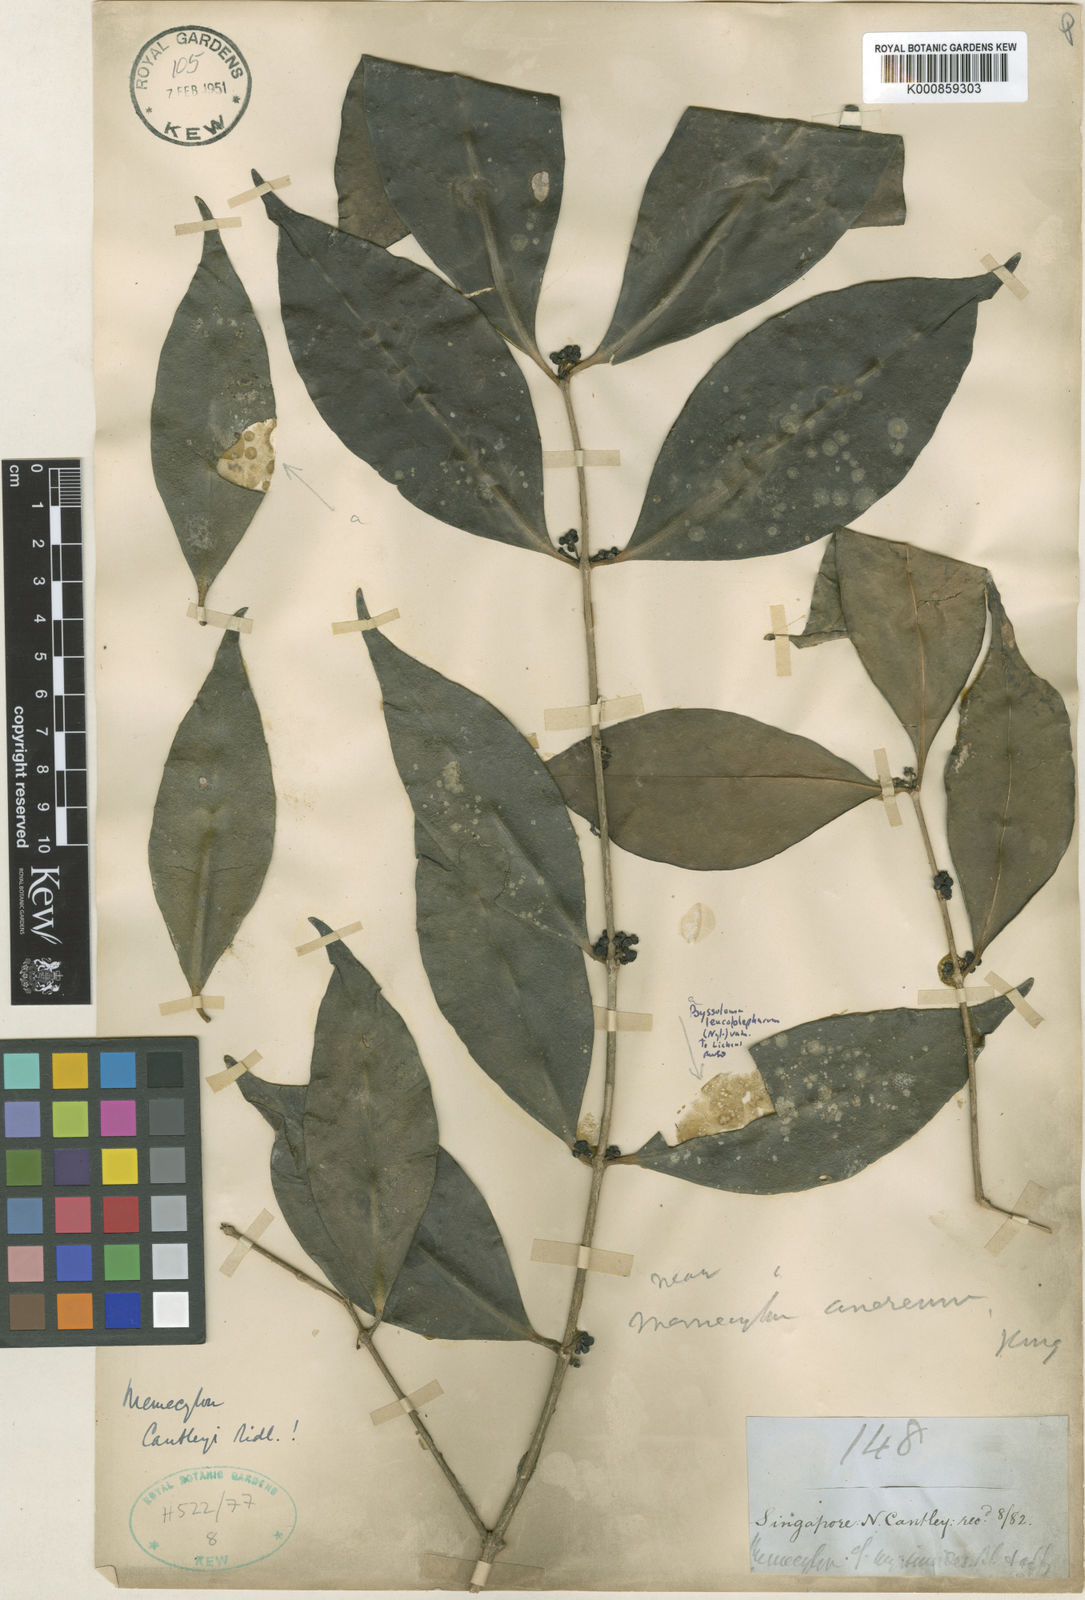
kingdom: Plantae
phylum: Tracheophyta
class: Magnoliopsida
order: Myrtales
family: Melastomataceae
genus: Memecylon
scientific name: Memecylon cantleyi
